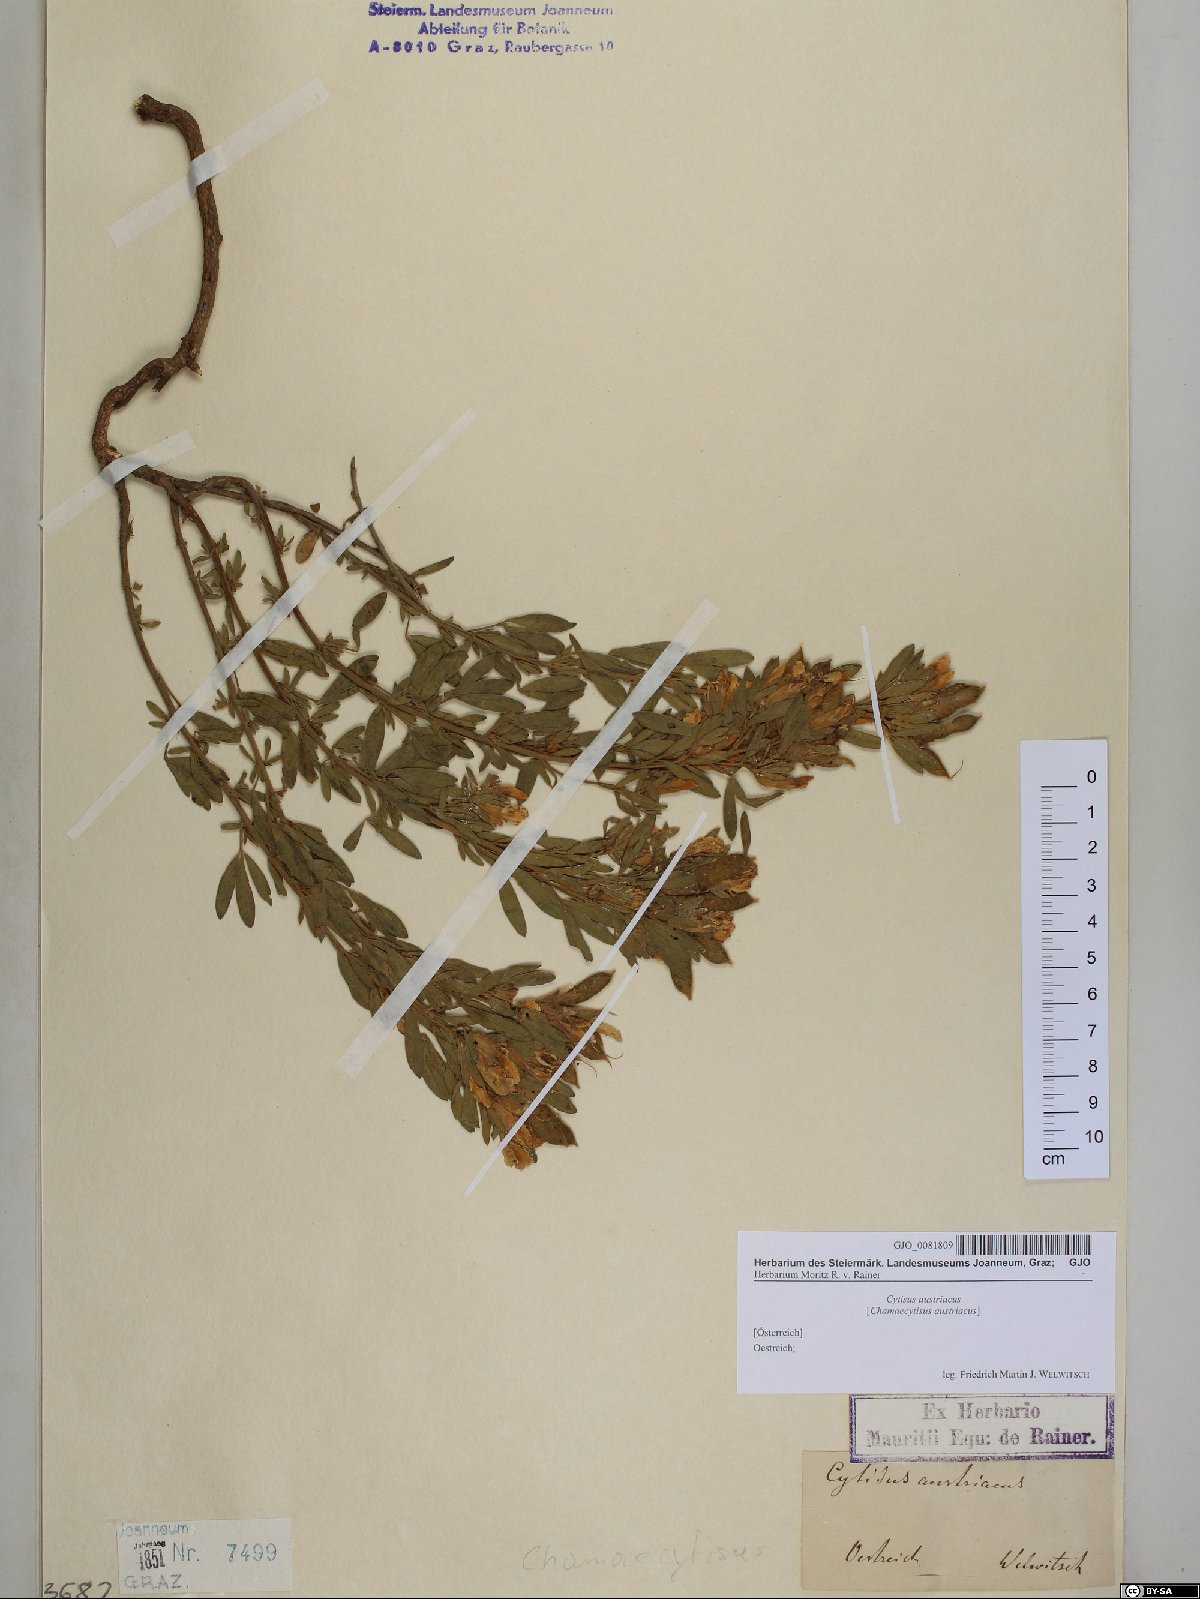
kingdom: Plantae
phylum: Tracheophyta
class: Magnoliopsida
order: Fabales
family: Fabaceae
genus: Chamaecytisus
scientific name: Chamaecytisus austriacus
